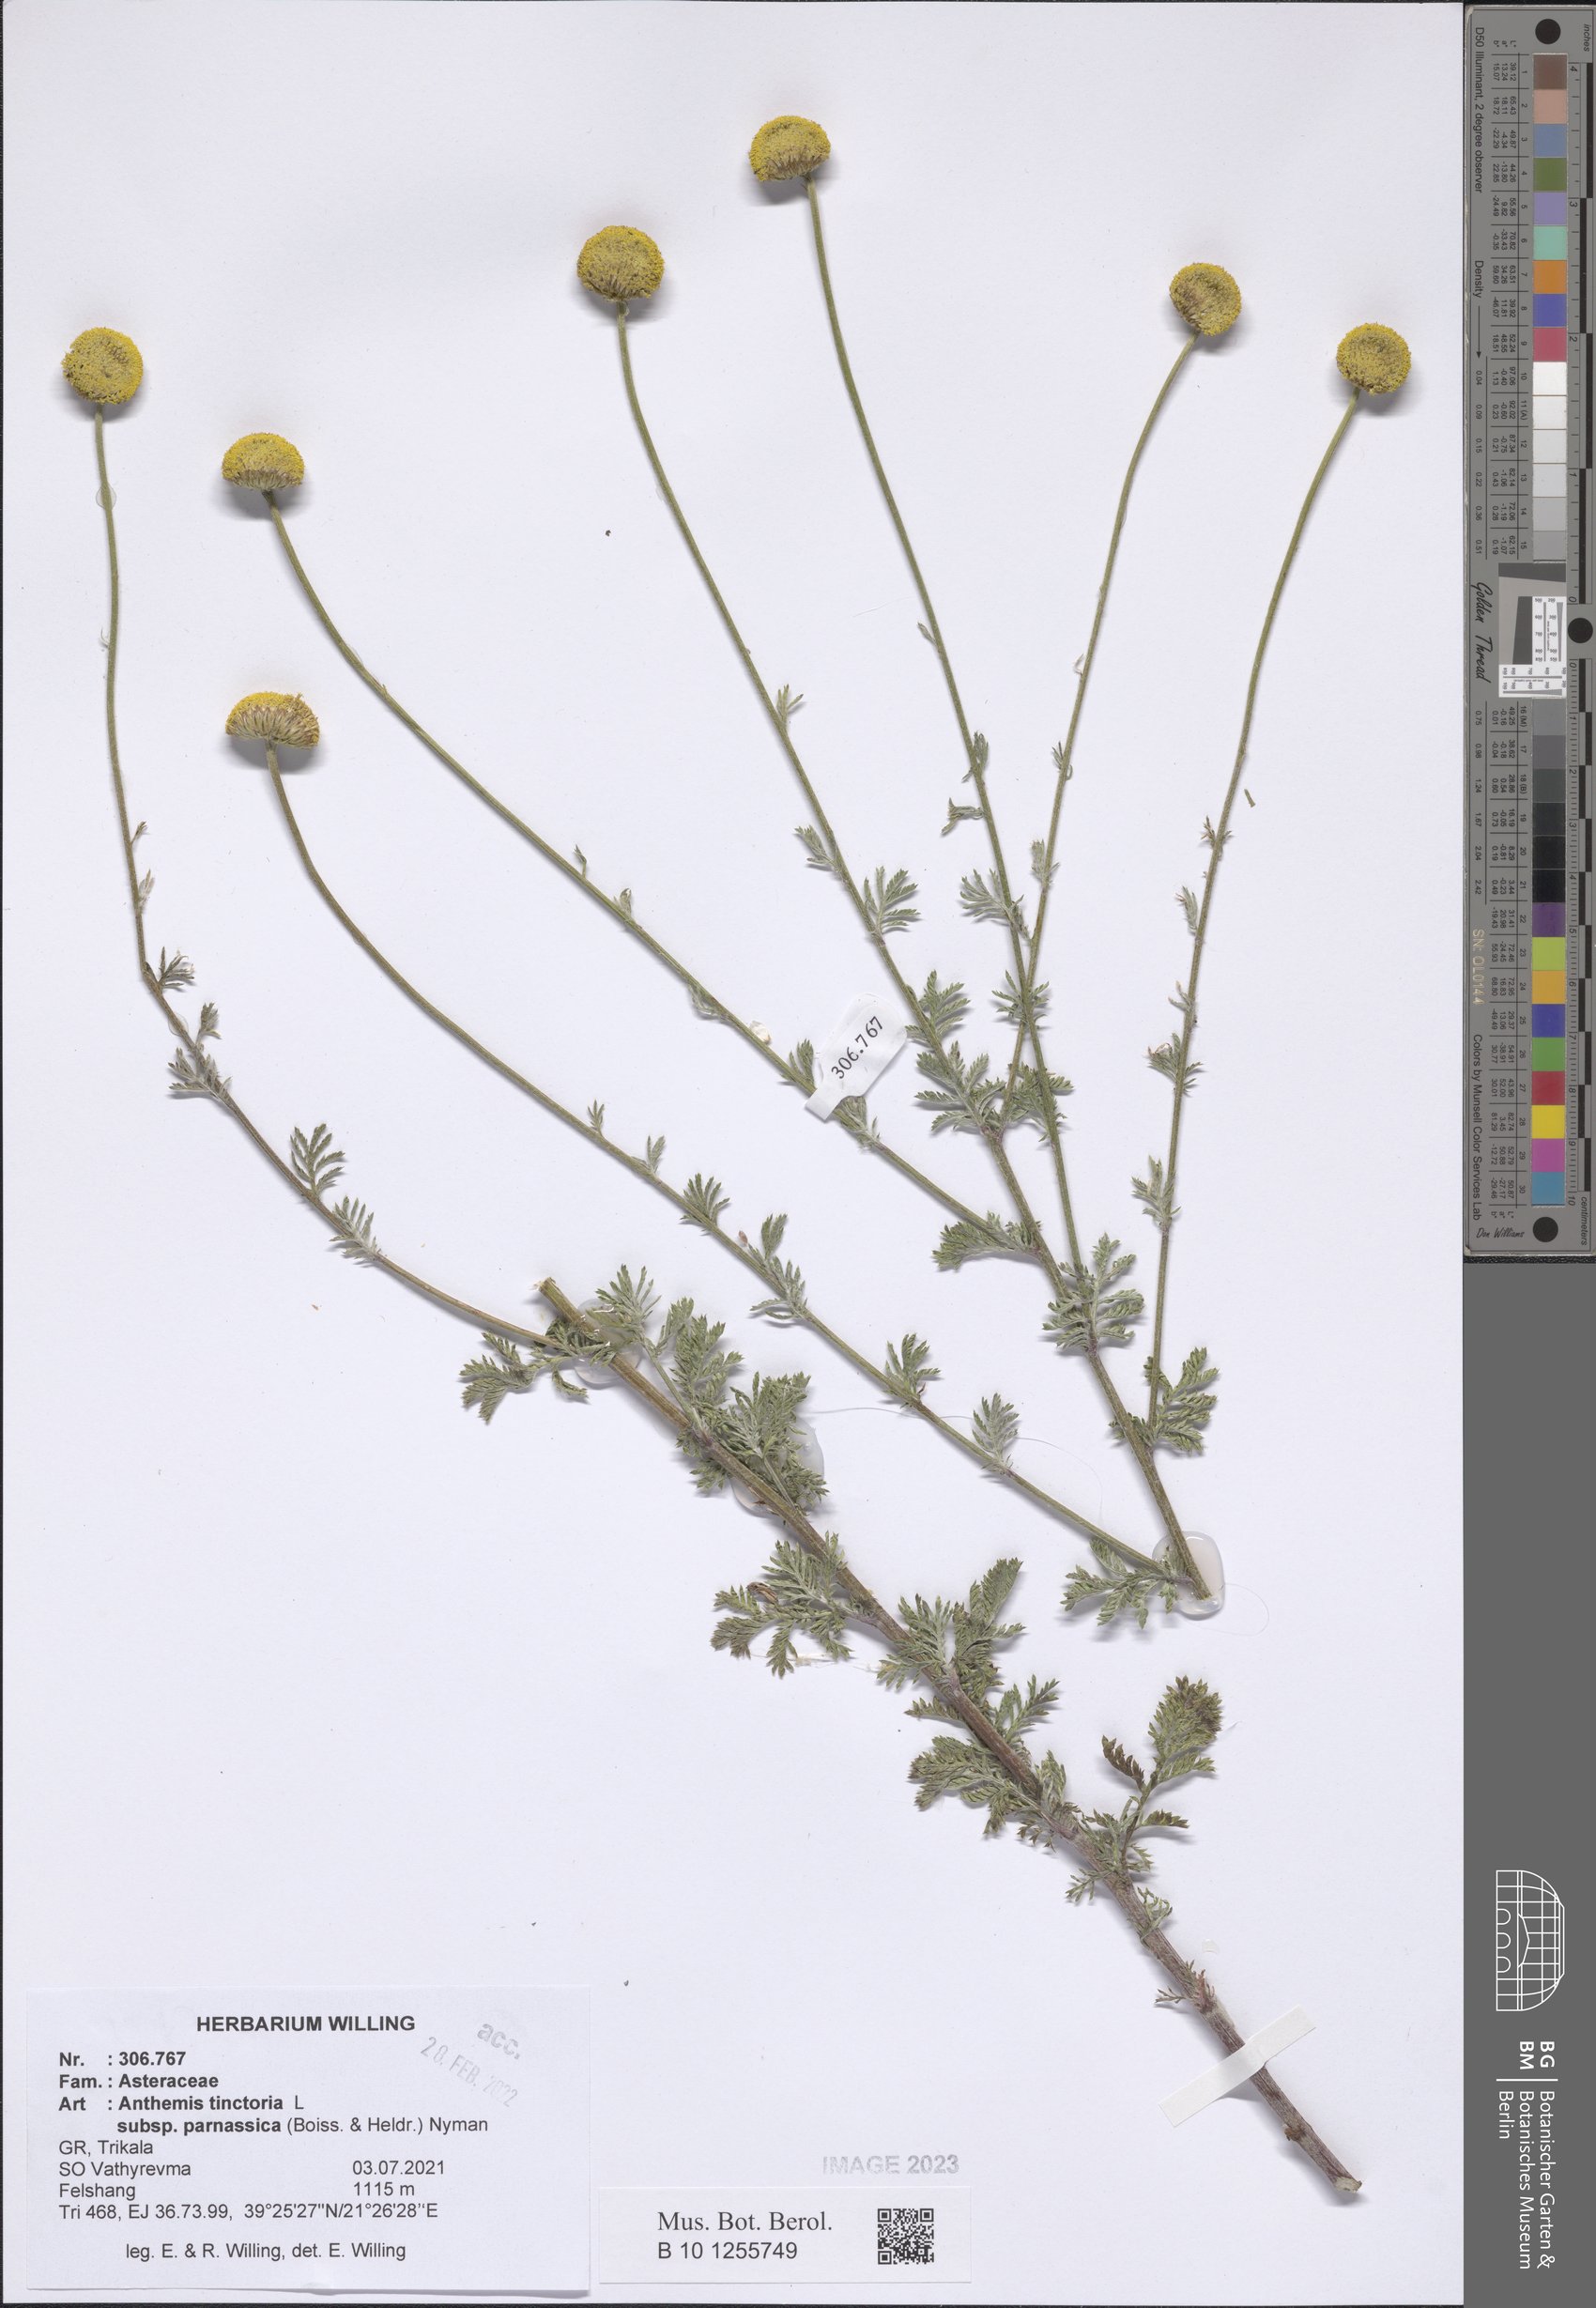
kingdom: Plantae
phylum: Tracheophyta
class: Magnoliopsida
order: Asterales
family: Asteraceae
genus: Cota
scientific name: Cota tinctoria
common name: Golden chamomile
